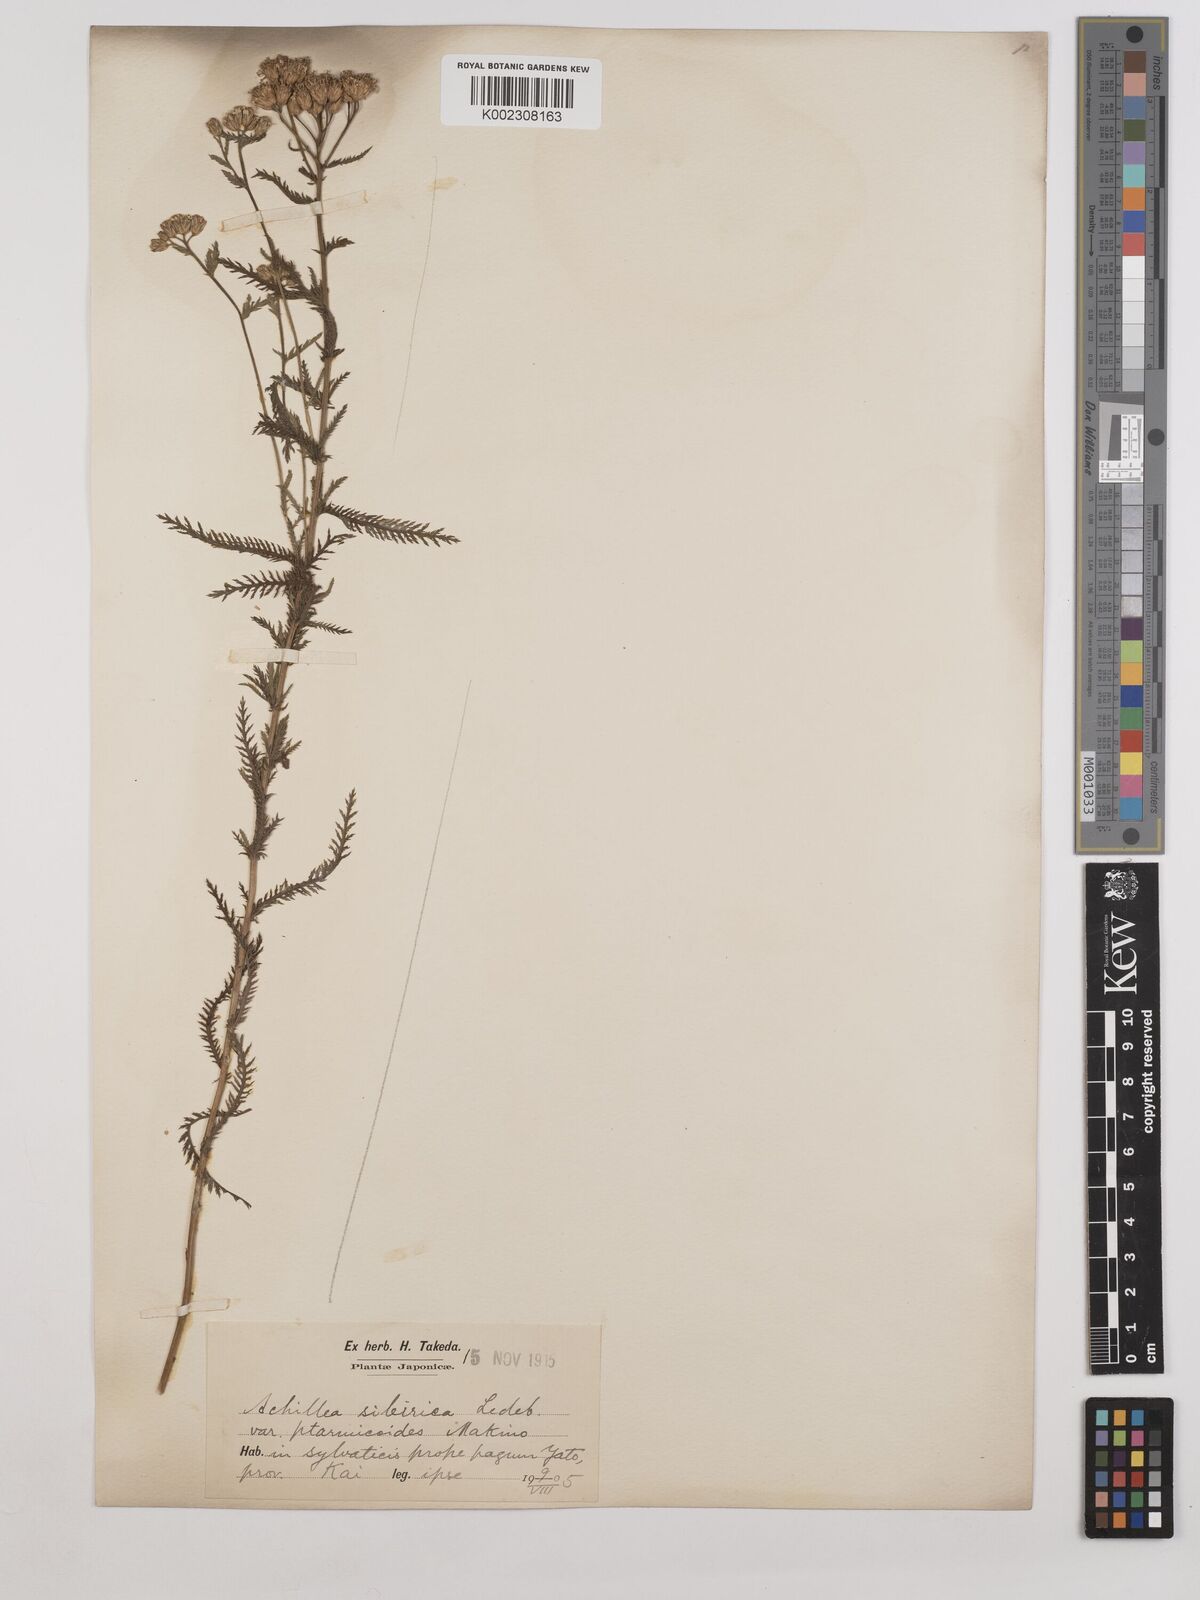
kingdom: Plantae
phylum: Tracheophyta
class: Magnoliopsida
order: Asterales
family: Asteraceae
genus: Achillea
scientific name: Achillea ptarmicoides
